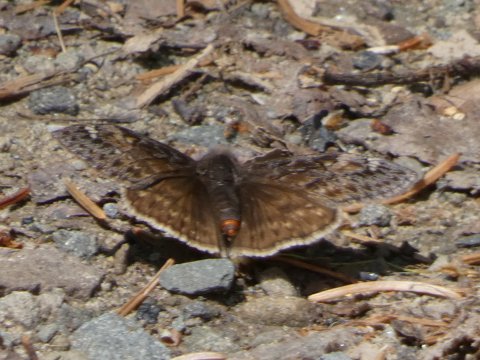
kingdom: Animalia
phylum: Arthropoda
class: Insecta
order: Lepidoptera
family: Hesperiidae
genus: Gesta
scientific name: Gesta
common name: Juvenal's Duskywing
